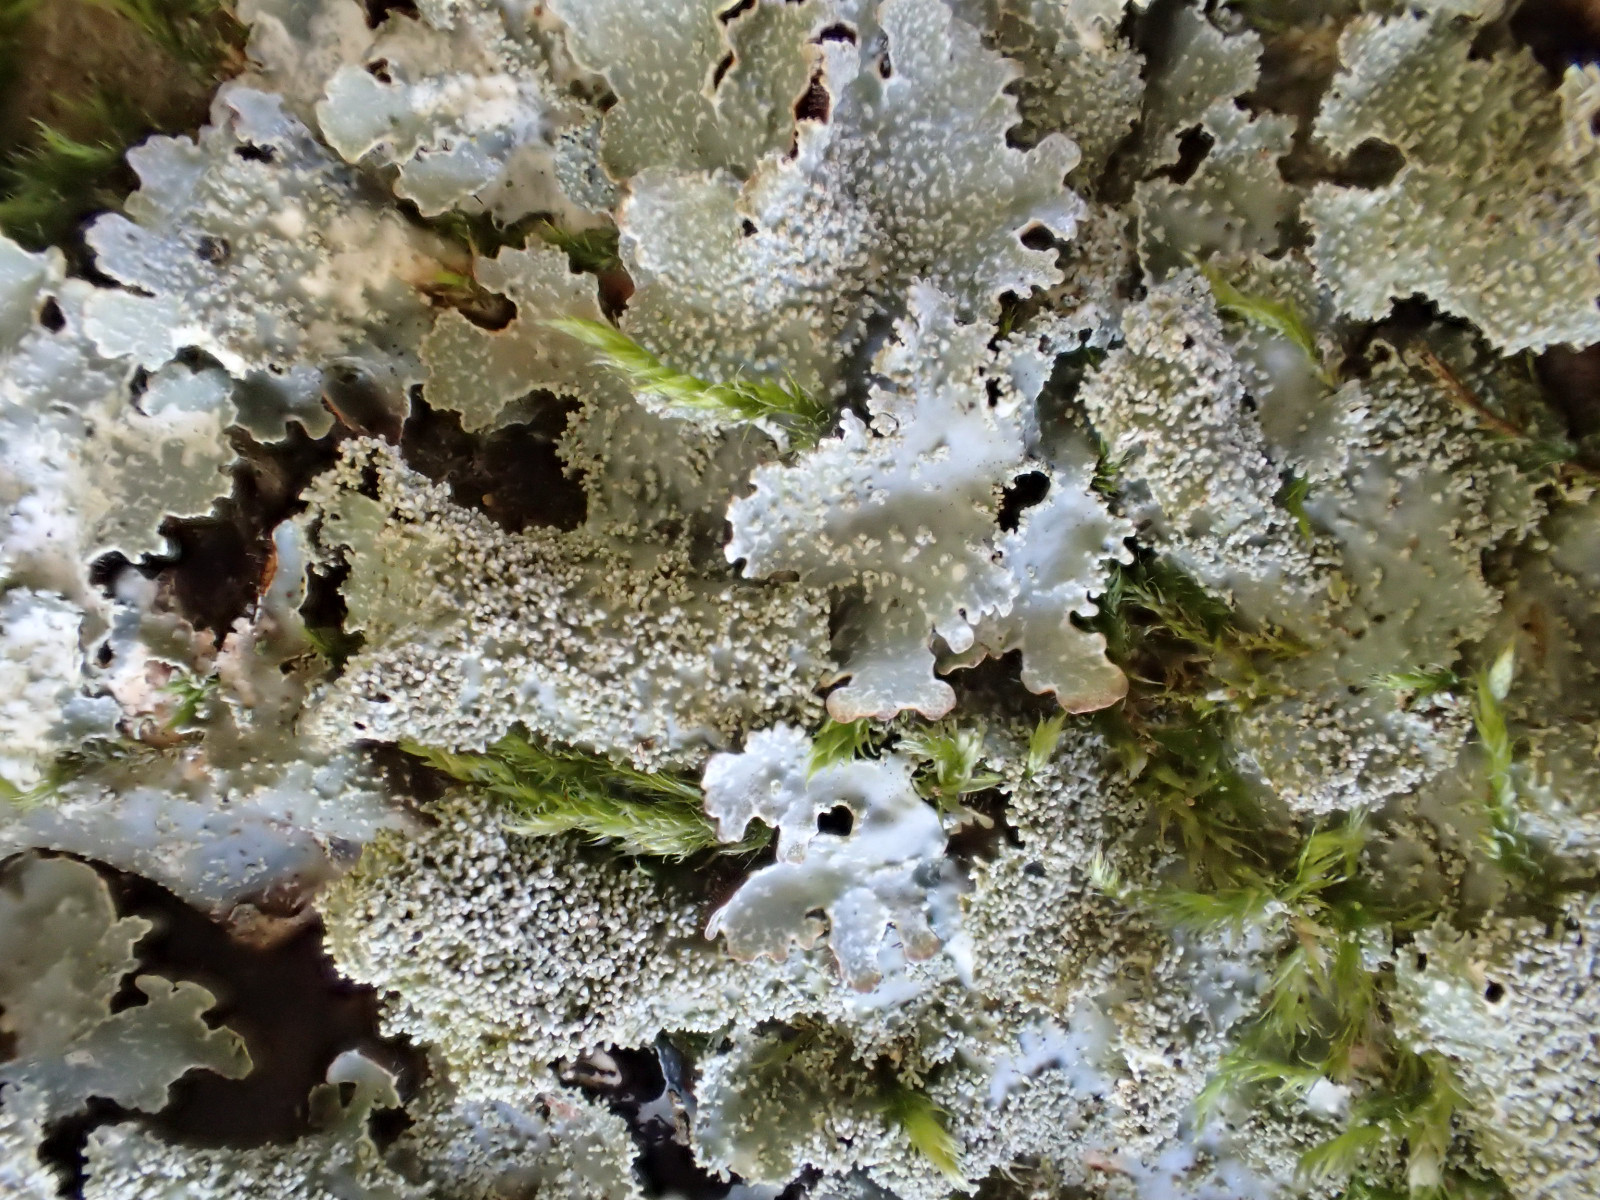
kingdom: Fungi
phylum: Ascomycota
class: Lecanoromycetes
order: Lecanorales
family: Parmeliaceae
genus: Parmelia
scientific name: Parmelia ernstiae
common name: rimstift-skållav
